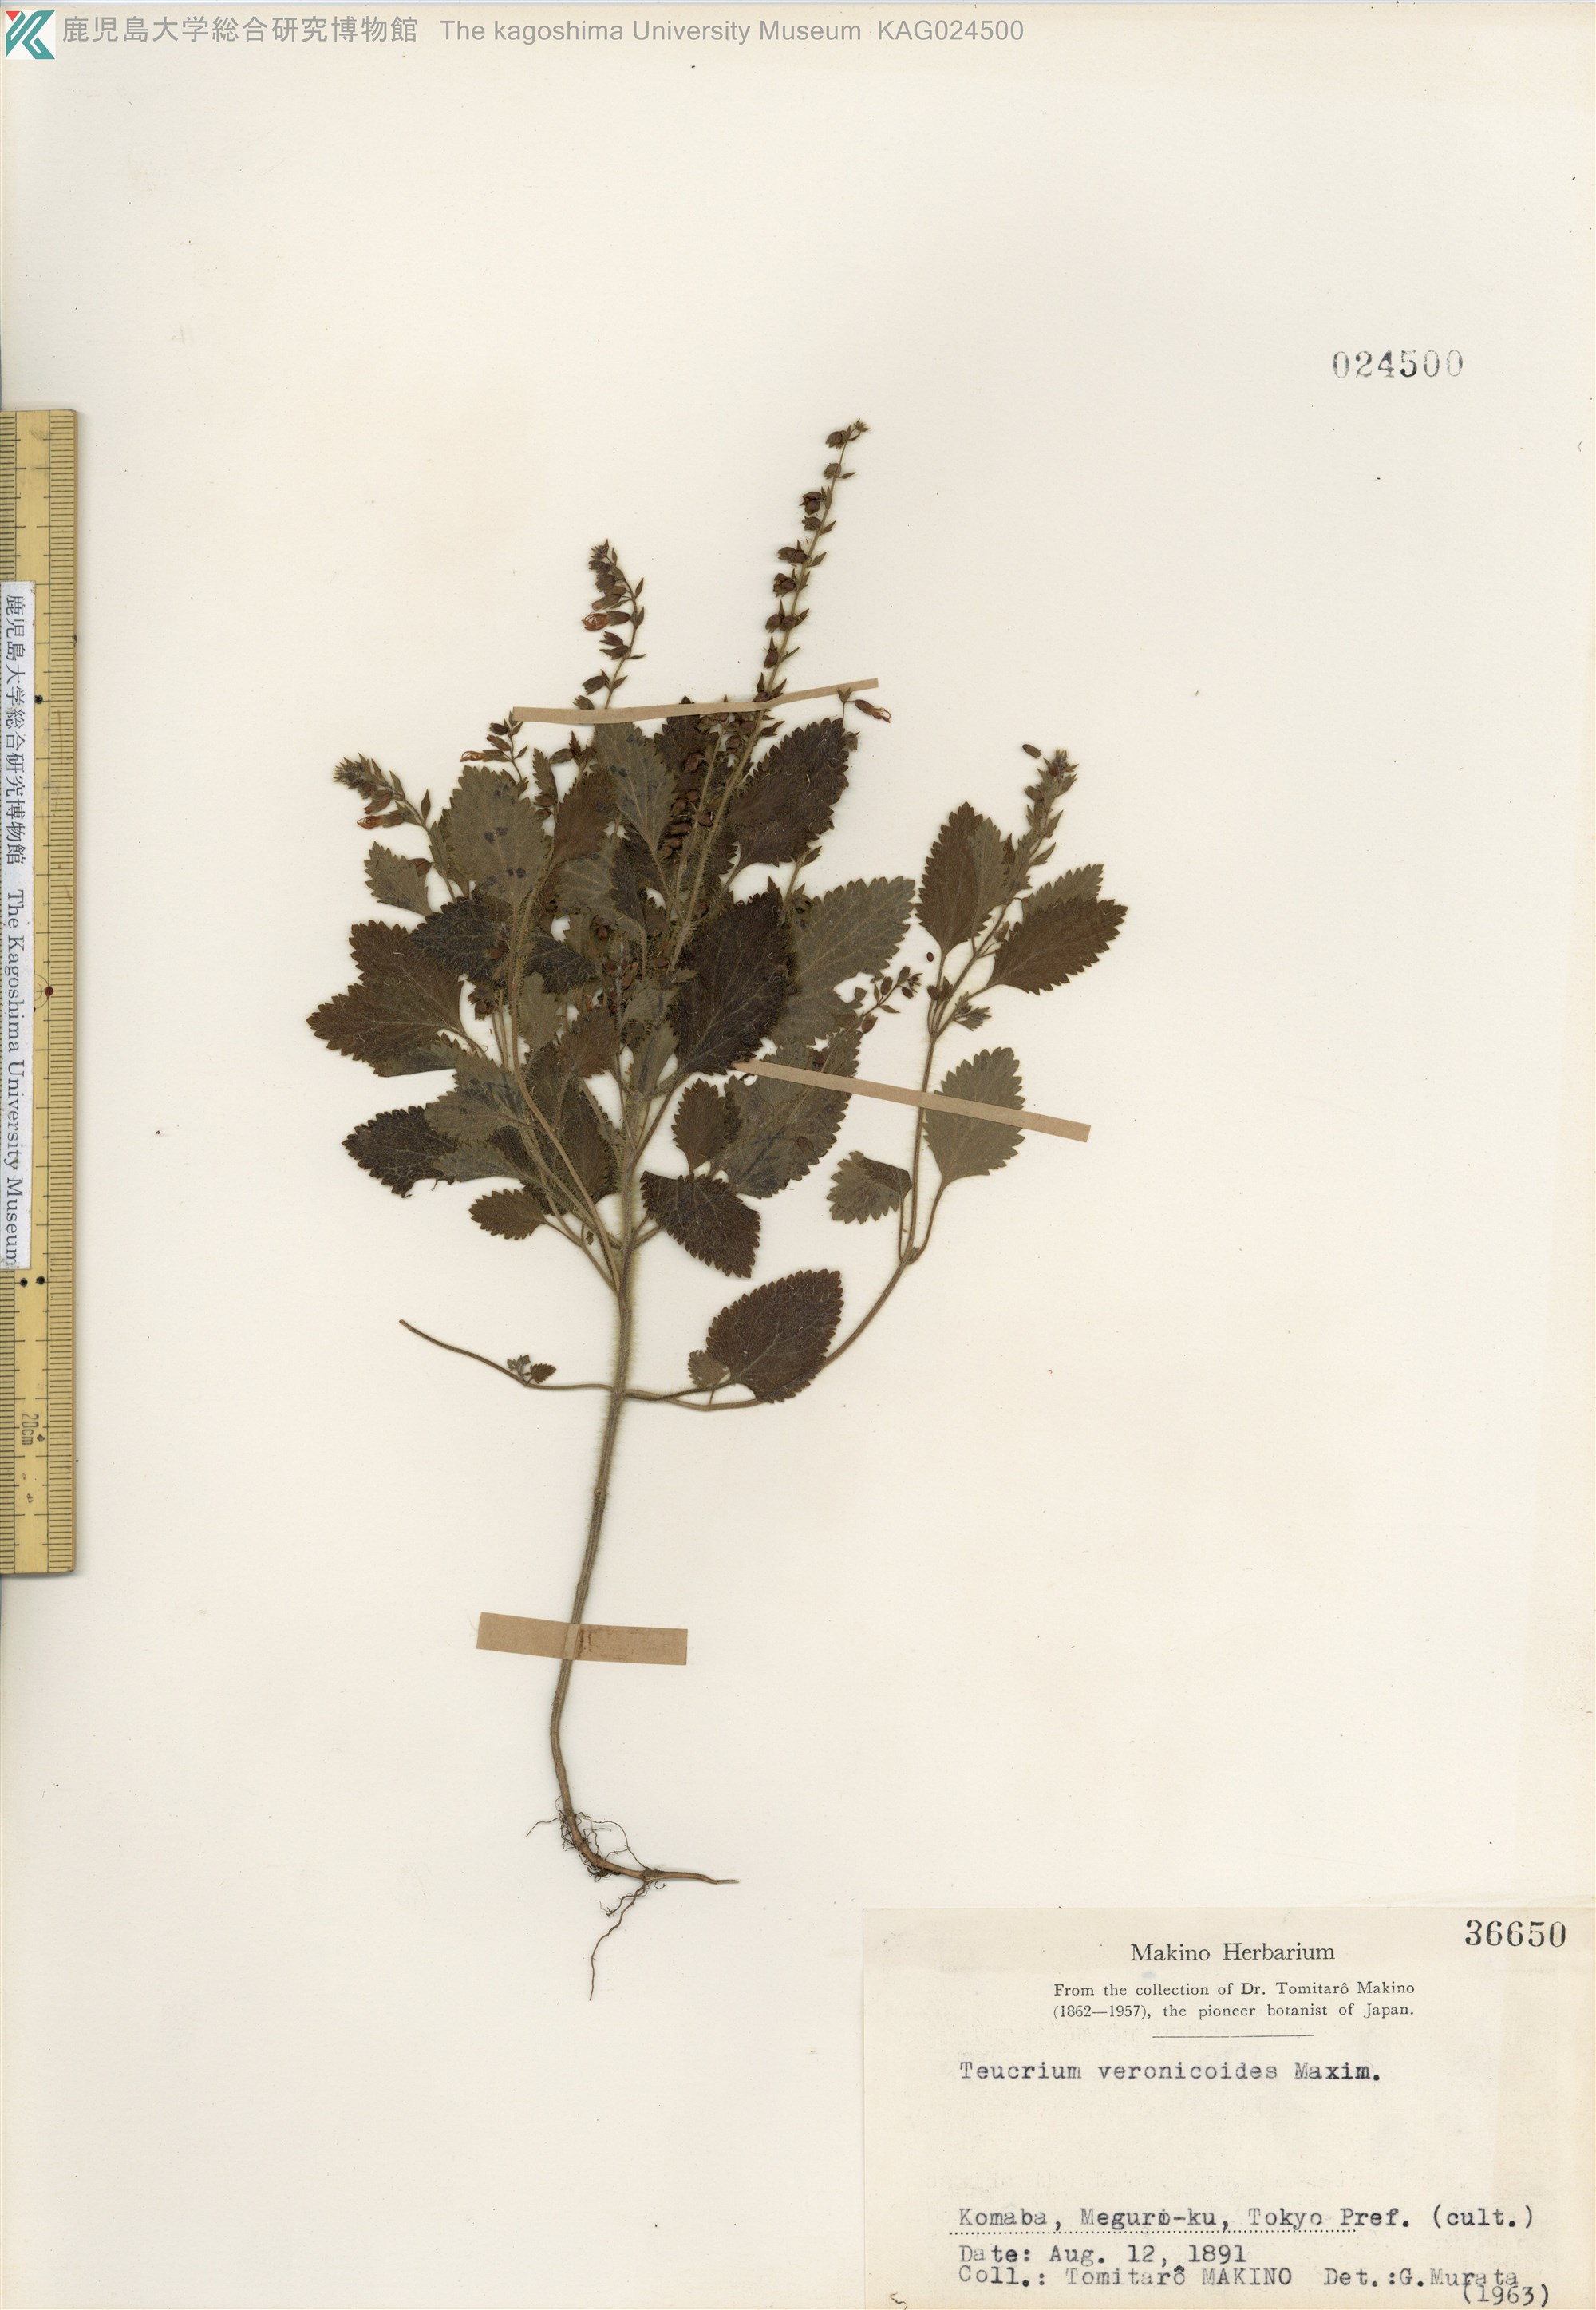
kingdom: Plantae
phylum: Tracheophyta
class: Magnoliopsida
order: Lamiales
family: Lamiaceae
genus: Teucrium
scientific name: Teucrium veronicoides
